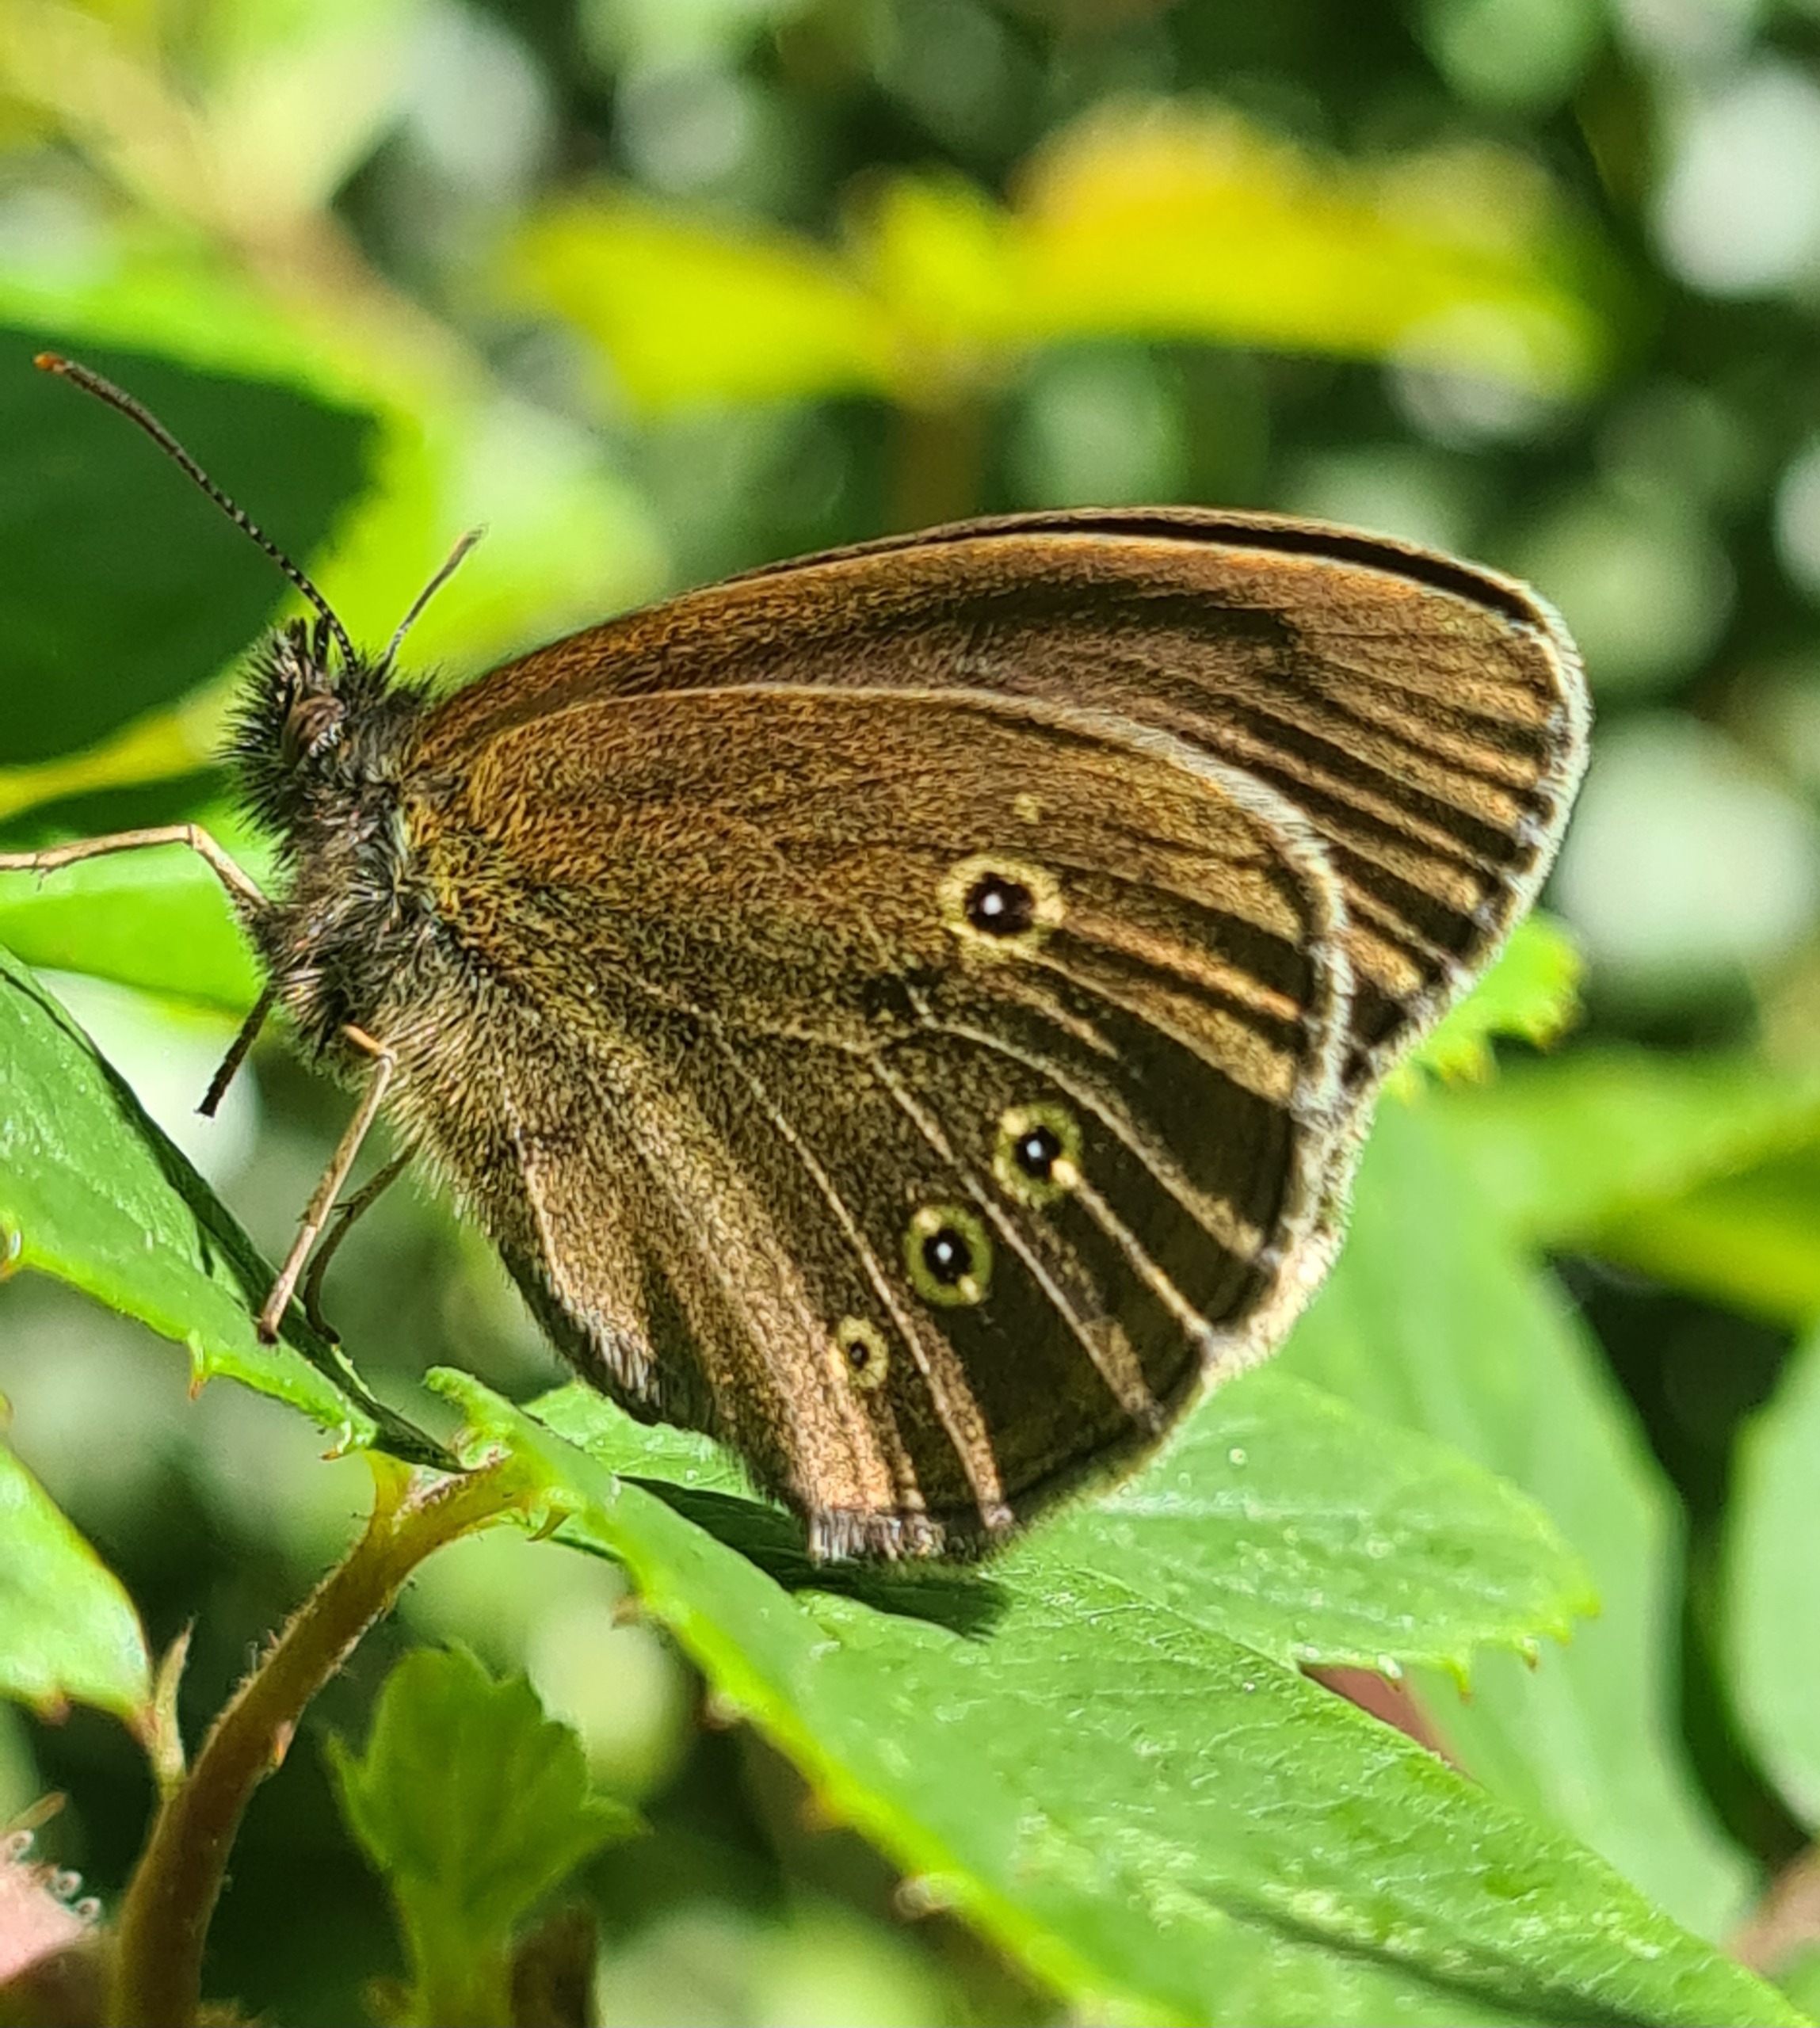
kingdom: Animalia
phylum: Arthropoda
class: Insecta
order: Lepidoptera
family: Nymphalidae
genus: Aphantopus
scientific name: Aphantopus hyperantus
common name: Engrandøje
